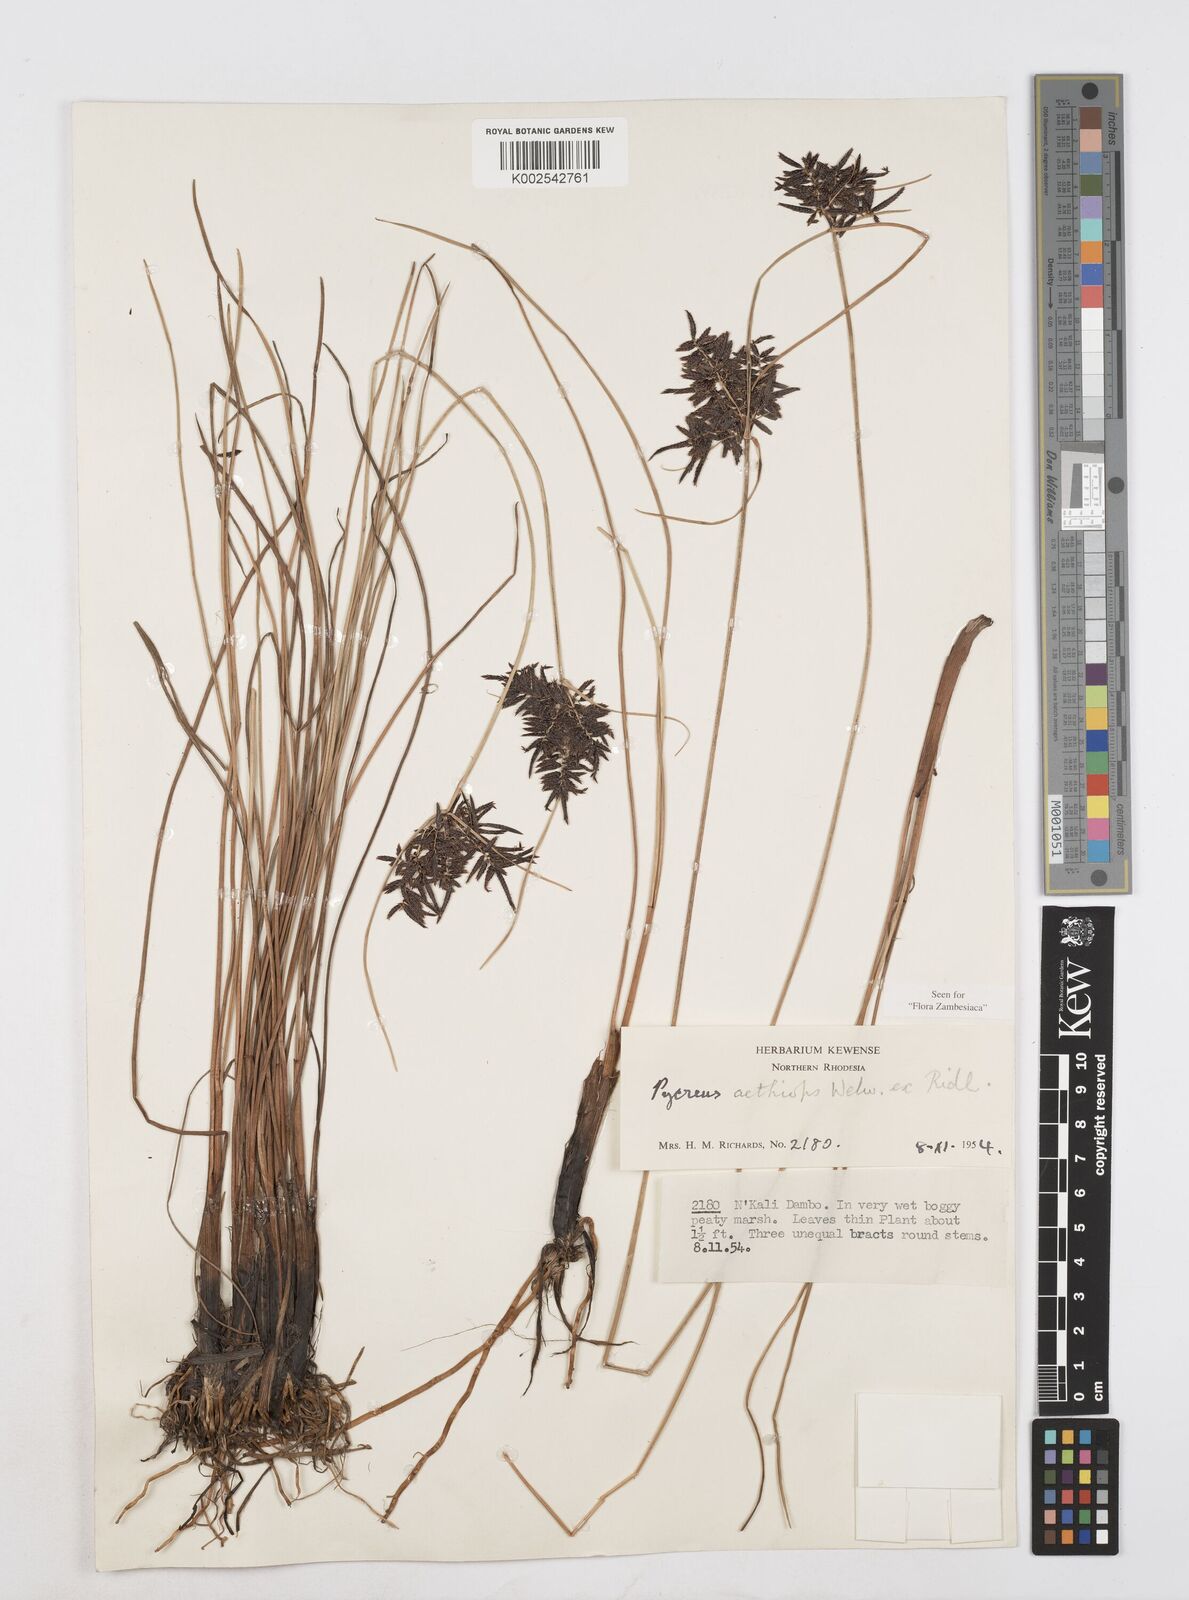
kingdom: Plantae
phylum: Tracheophyta
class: Liliopsida
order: Poales
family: Cyperaceae
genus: Cyperus
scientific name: Cyperus aethiops
